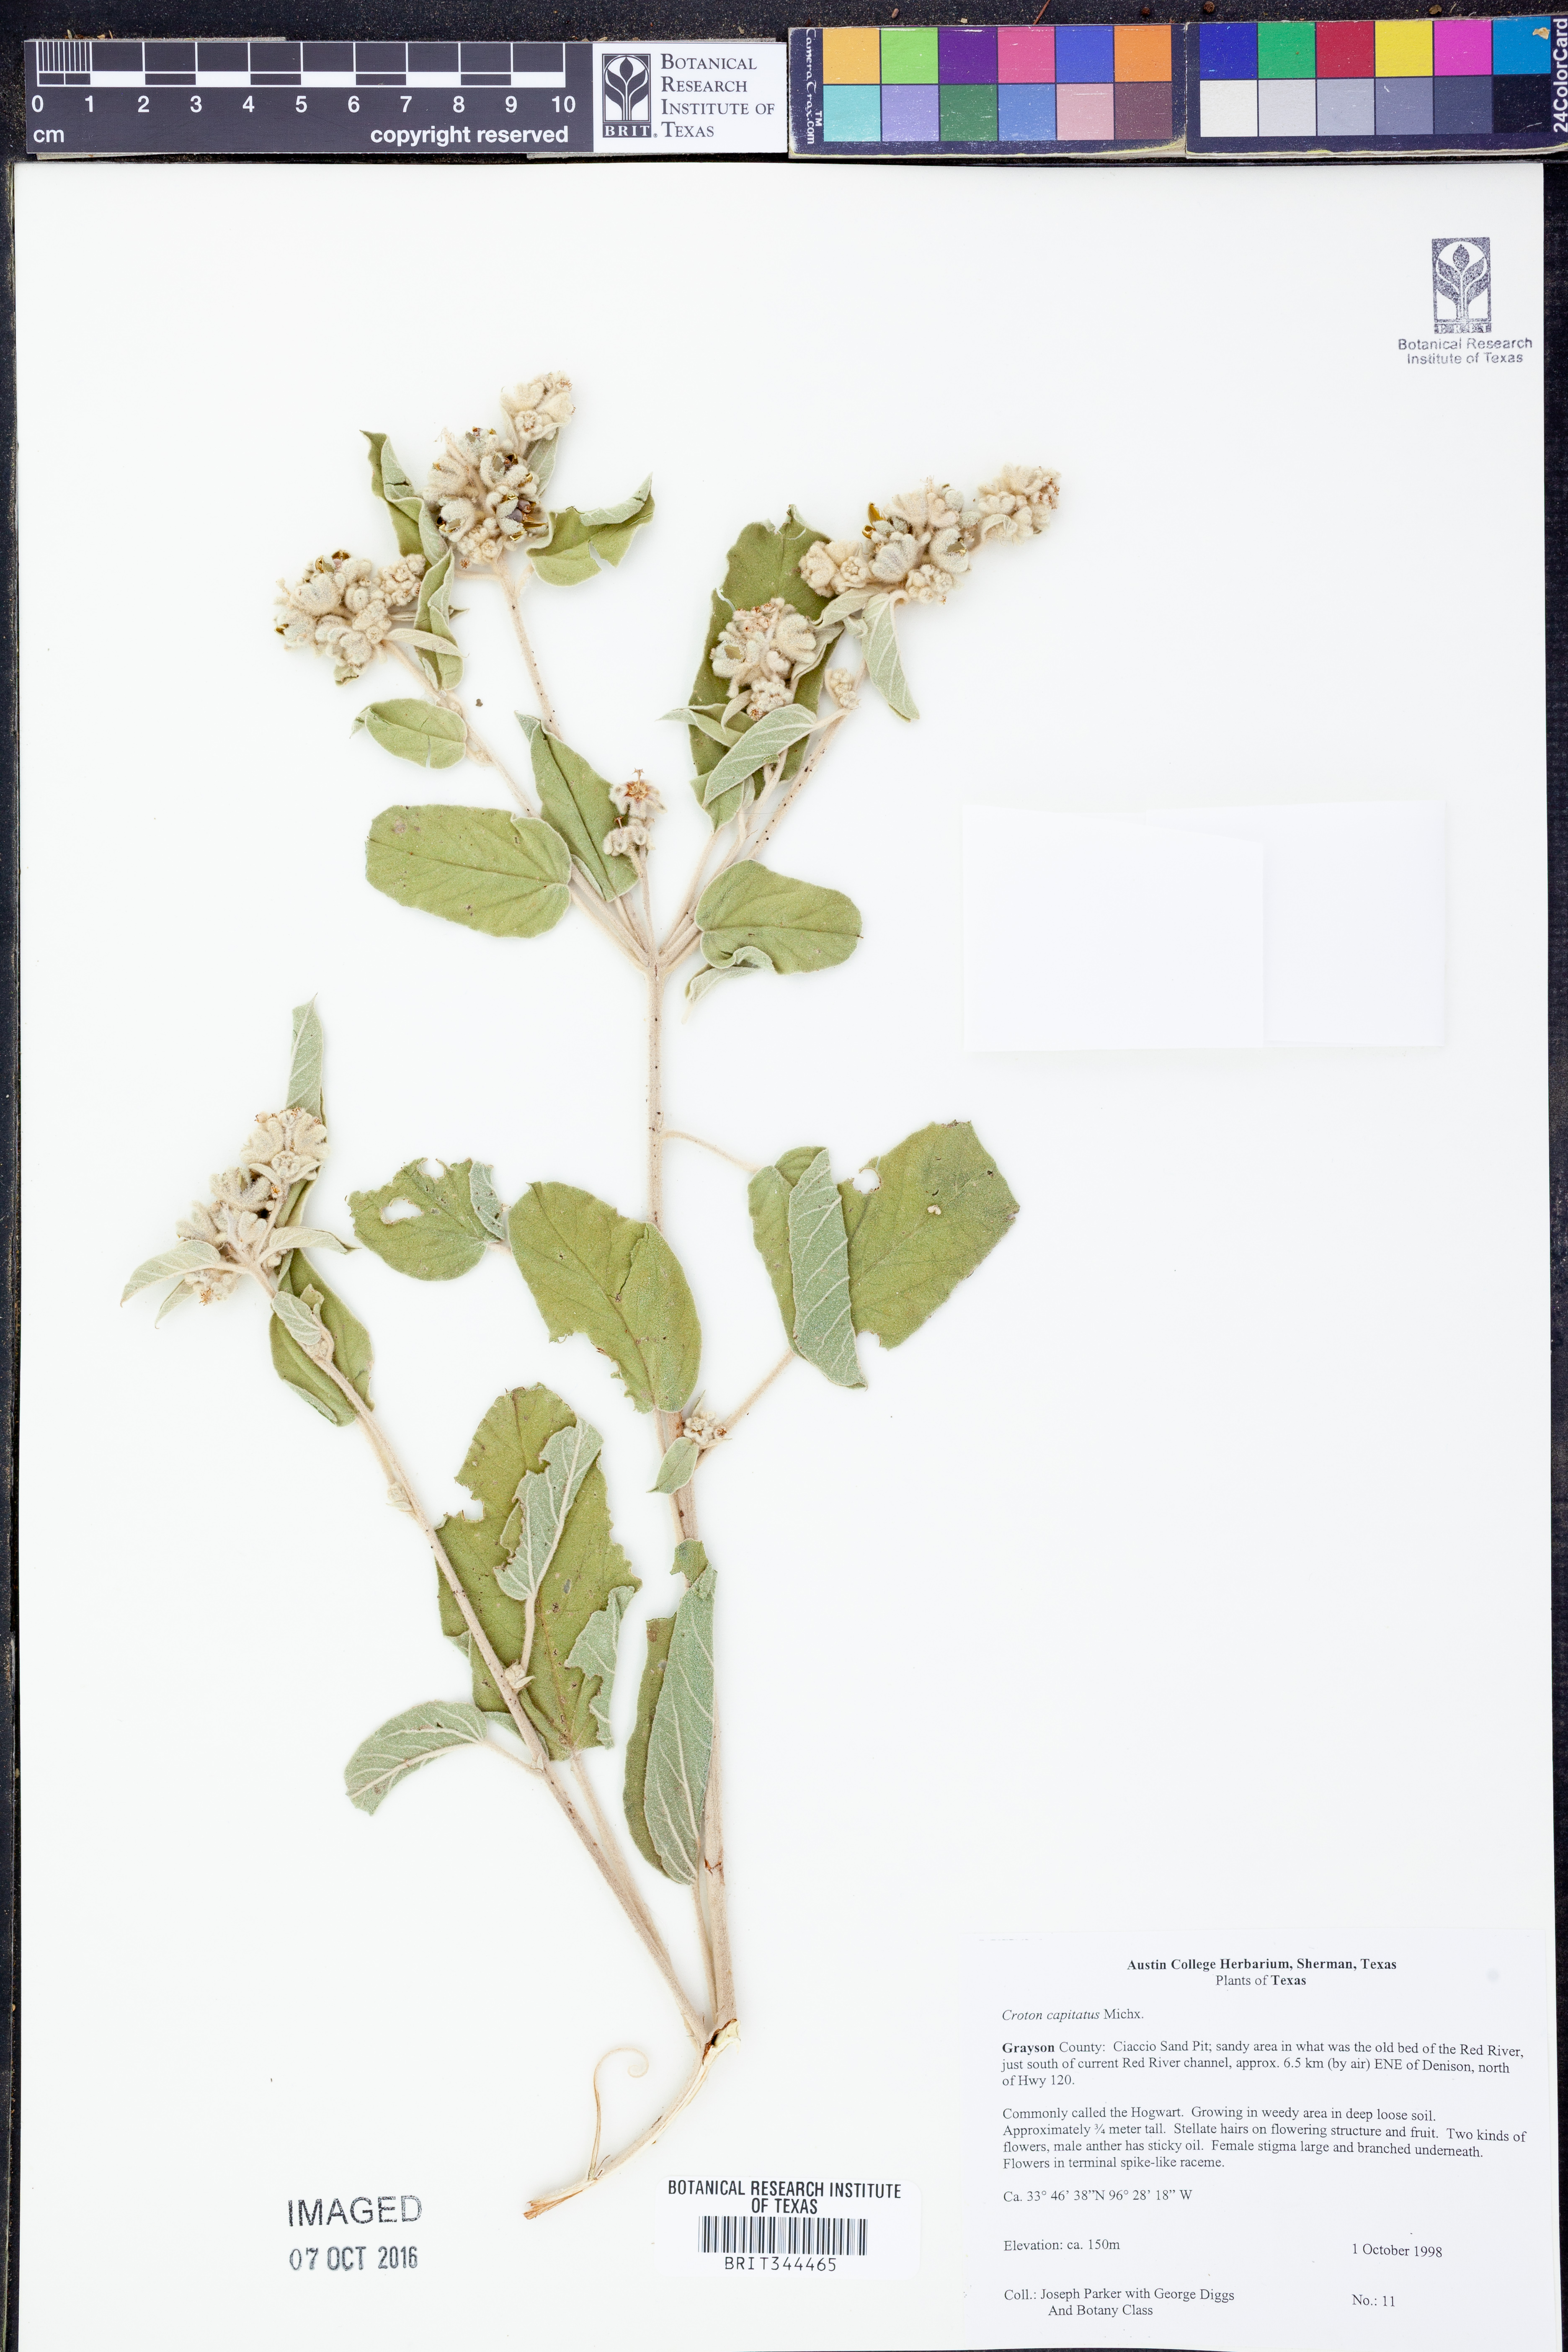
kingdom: Plantae
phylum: Tracheophyta
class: Magnoliopsida
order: Malpighiales
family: Euphorbiaceae
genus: Croton
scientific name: Croton capitatus
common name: Woolly croton
